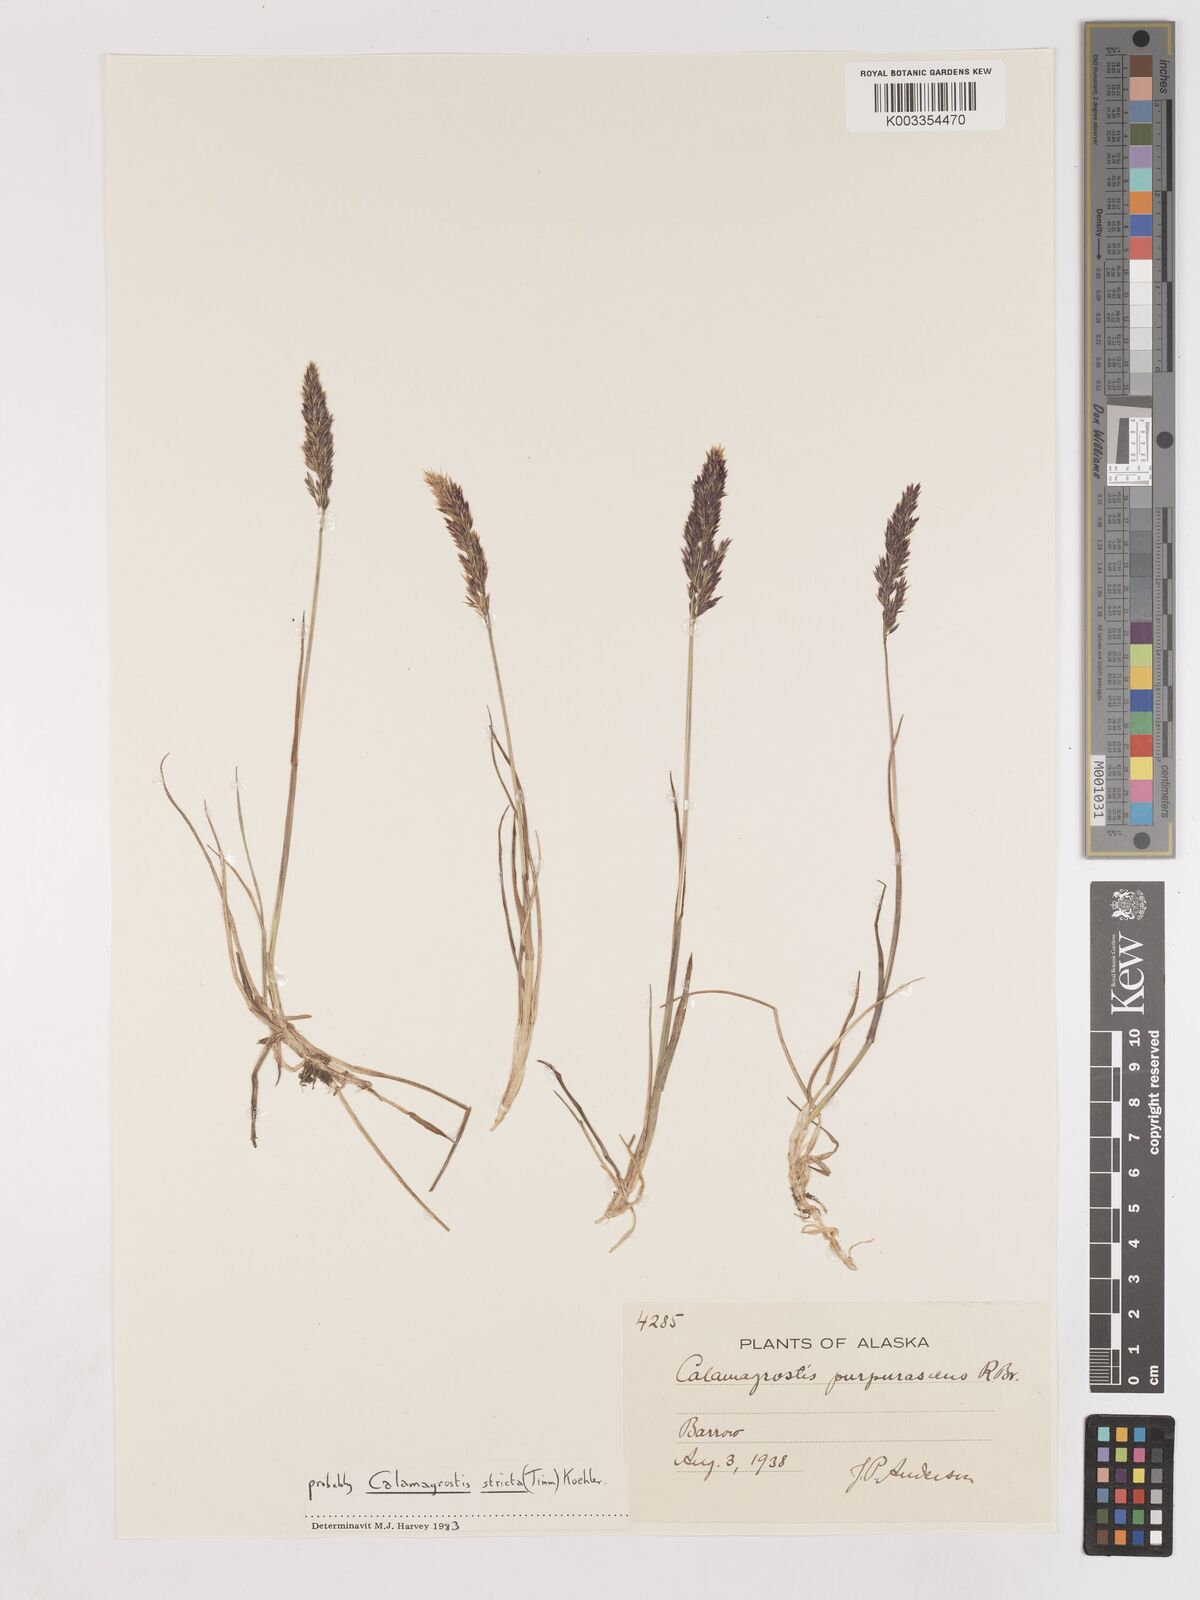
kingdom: Plantae
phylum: Tracheophyta
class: Liliopsida
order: Poales
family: Poaceae
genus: Calamagrostis
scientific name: Calamagrostis purpurascens
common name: Purple reedgrass
